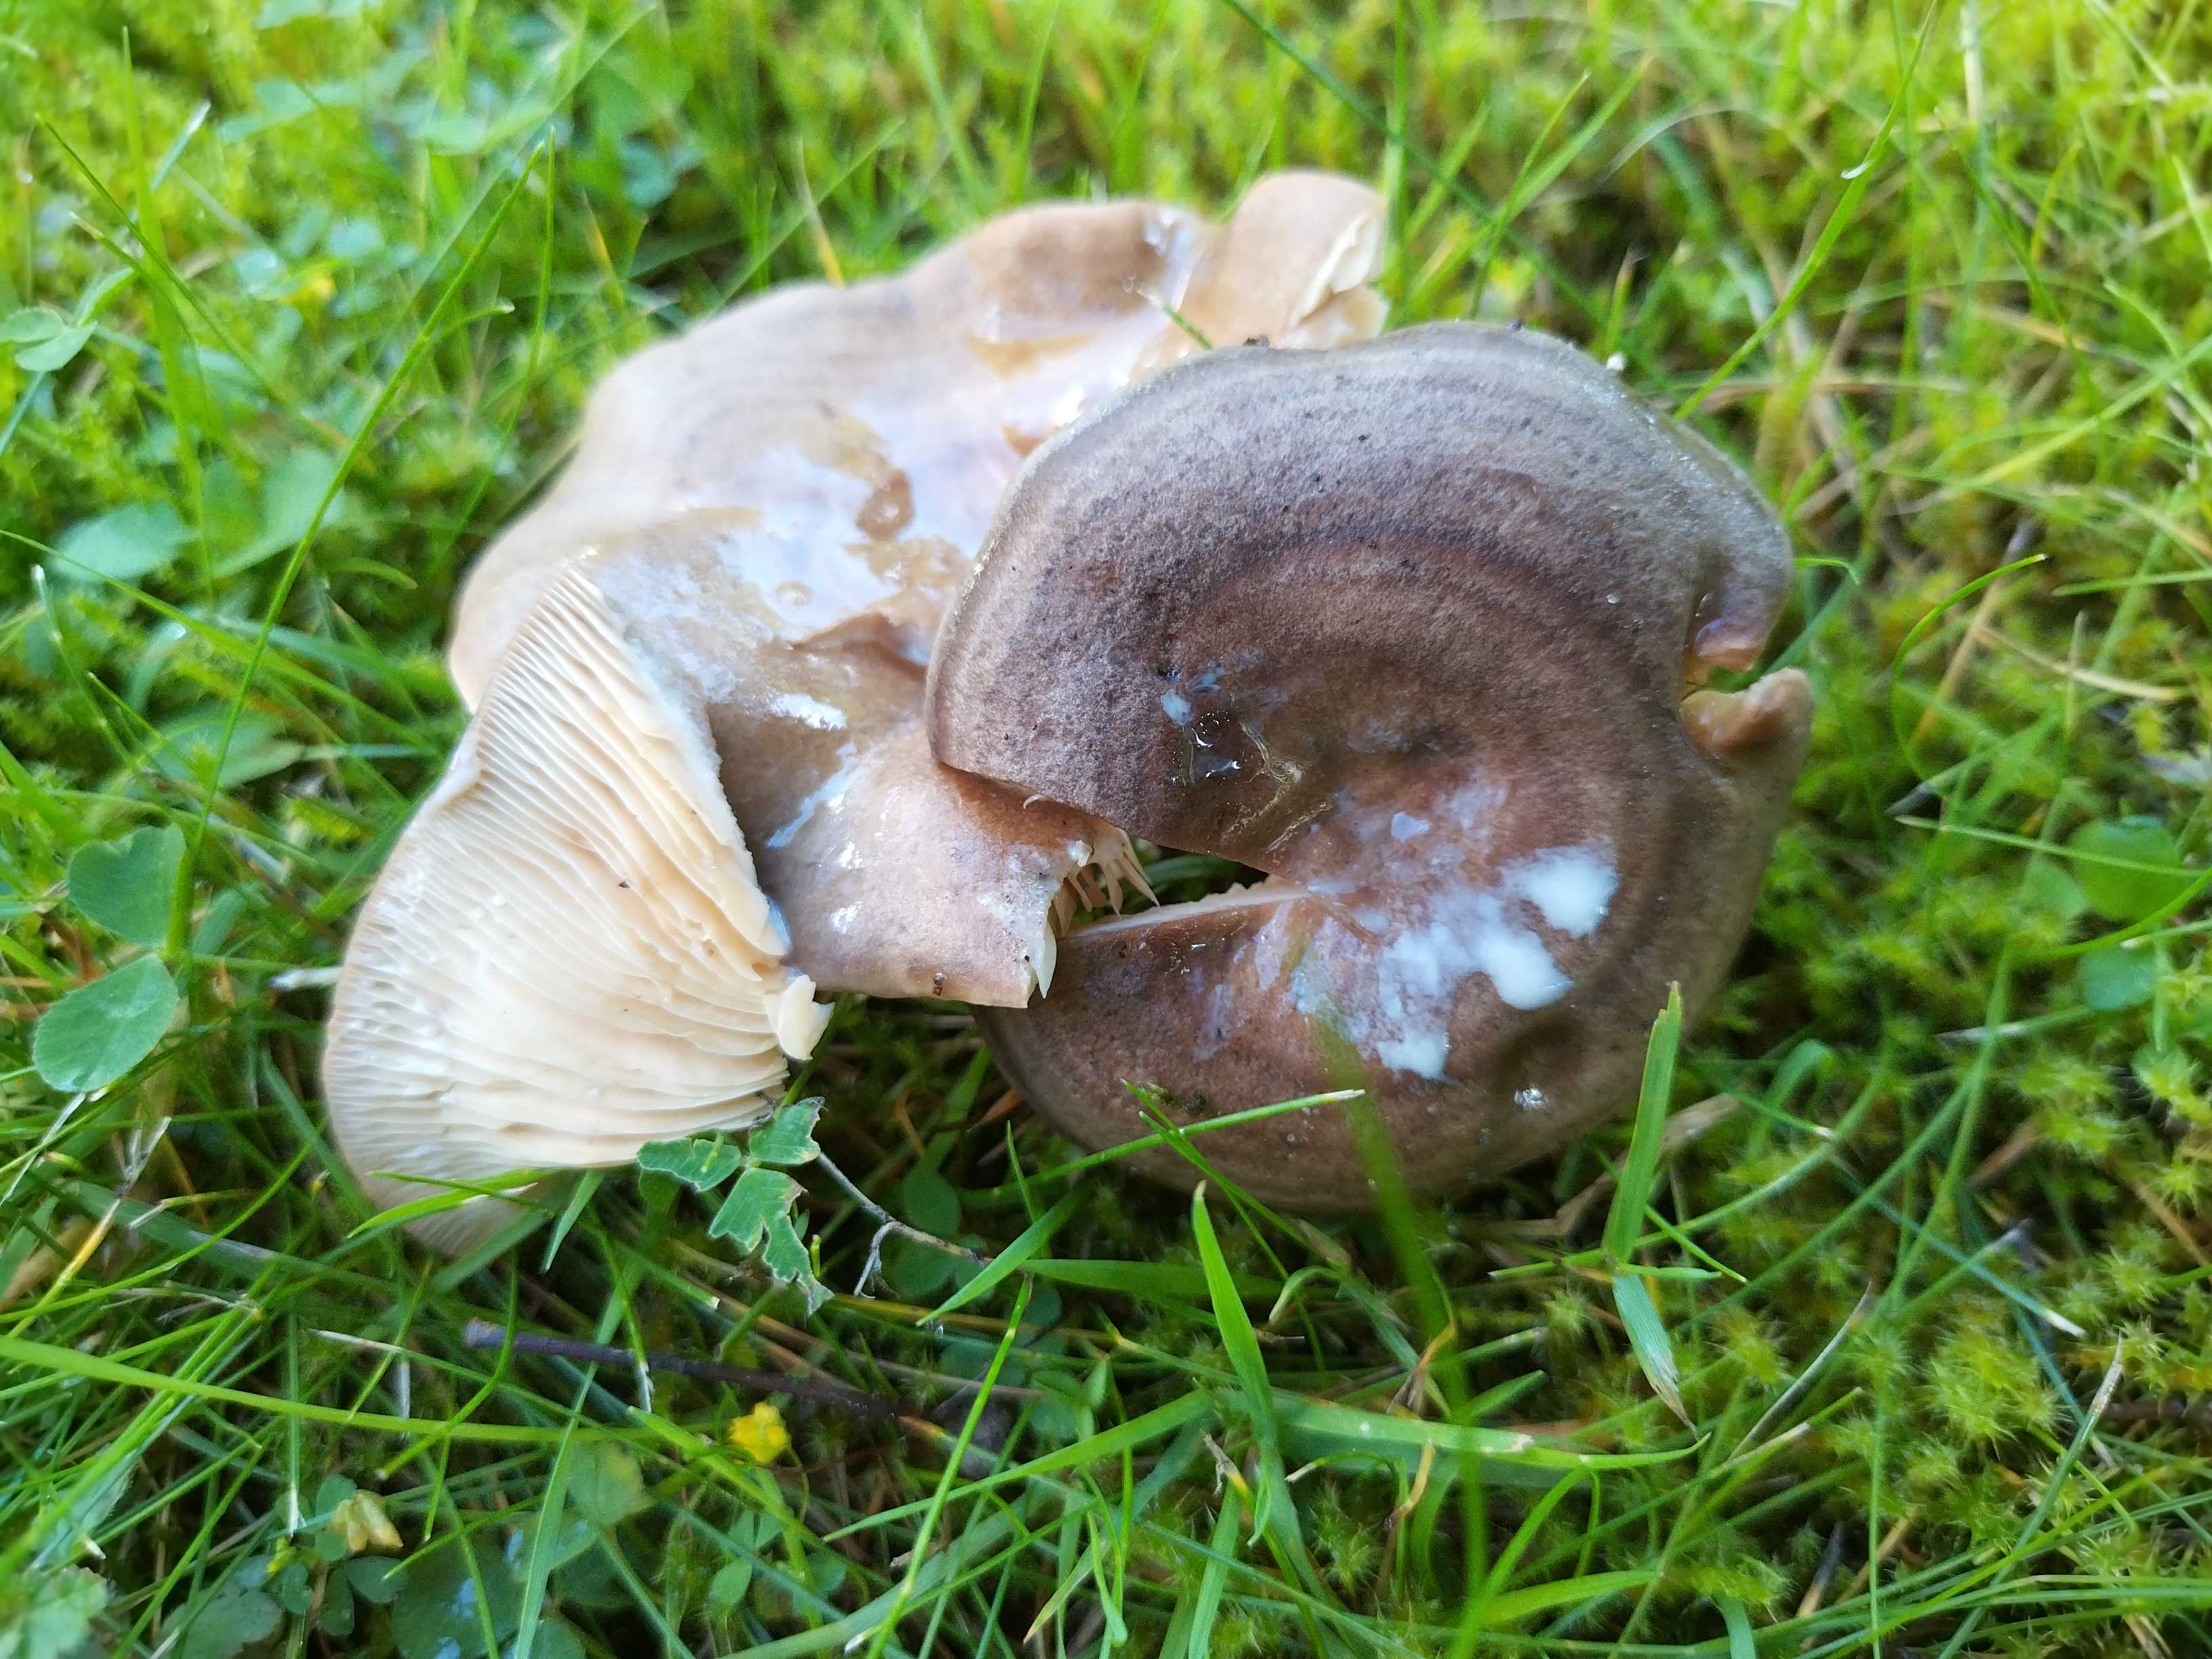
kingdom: Fungi
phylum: Basidiomycota
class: Agaricomycetes
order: Russulales
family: Russulaceae
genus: Lactarius
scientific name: Lactarius quietus
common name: ege-mælkehat
